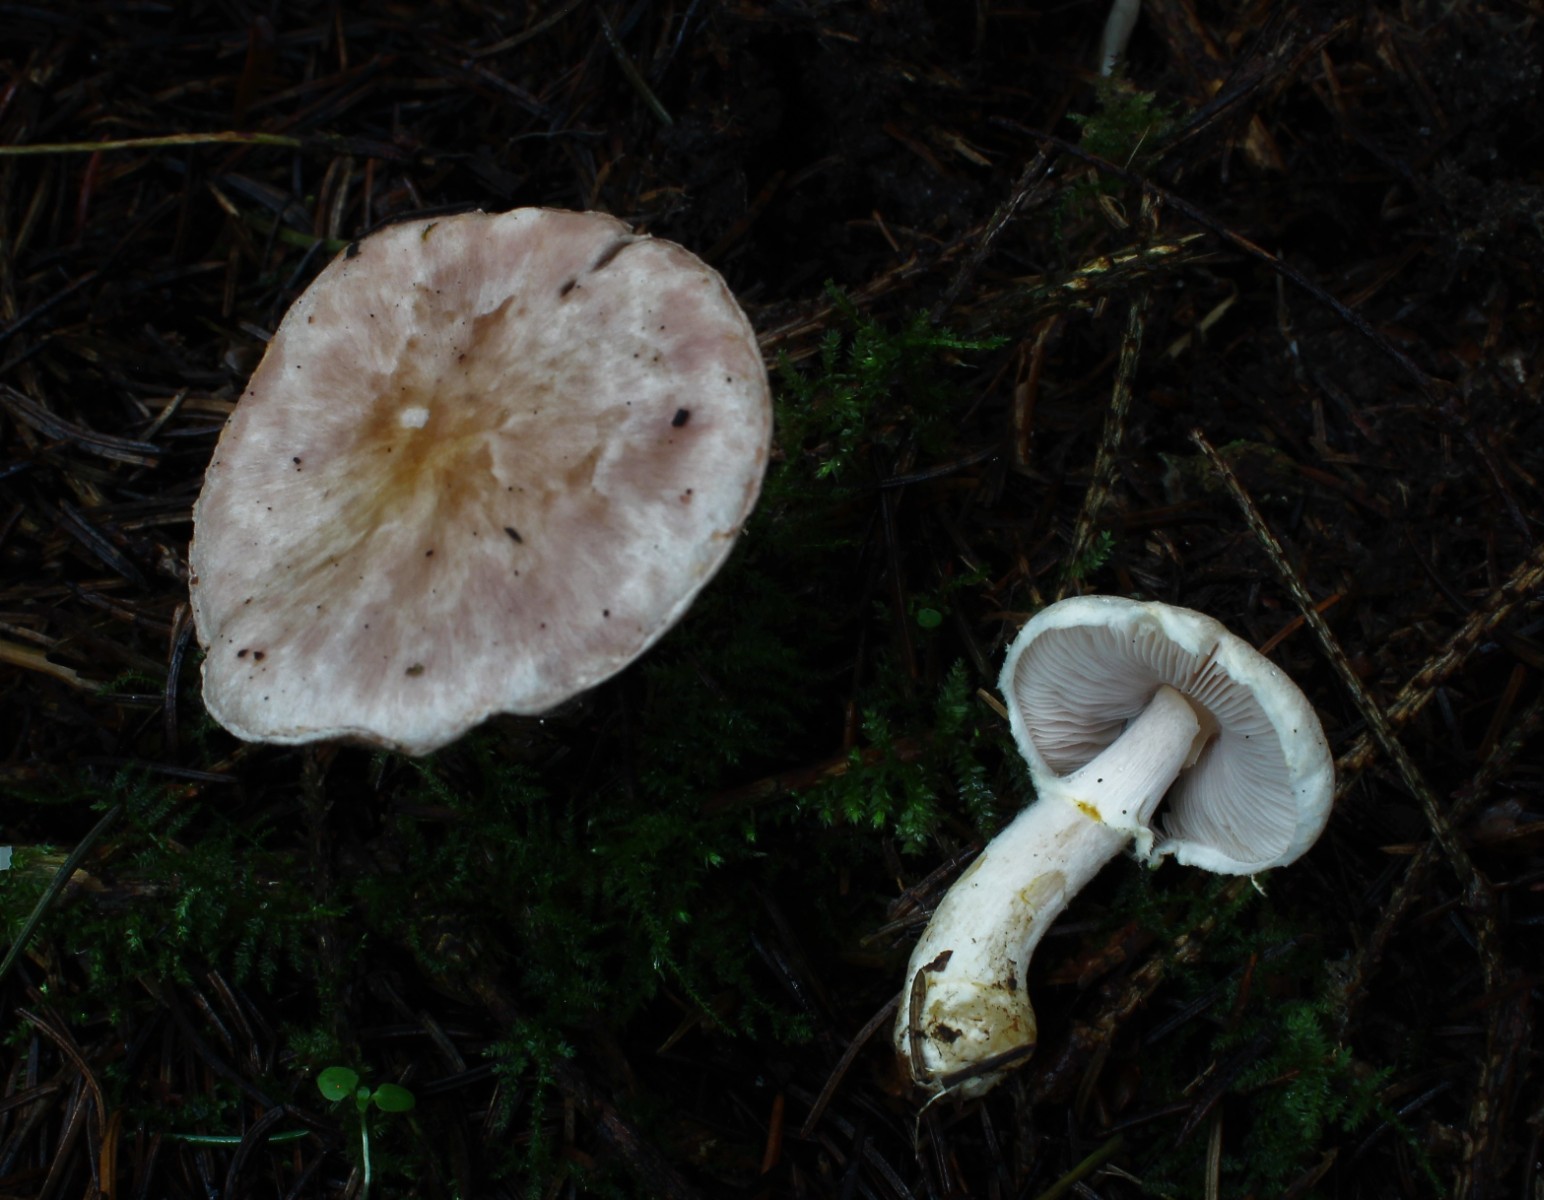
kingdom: Fungi
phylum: Basidiomycota
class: Agaricomycetes
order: Agaricales
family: Agaricaceae
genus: Agaricus
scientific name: Agaricus dulcidulus
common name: blegrød champignon
